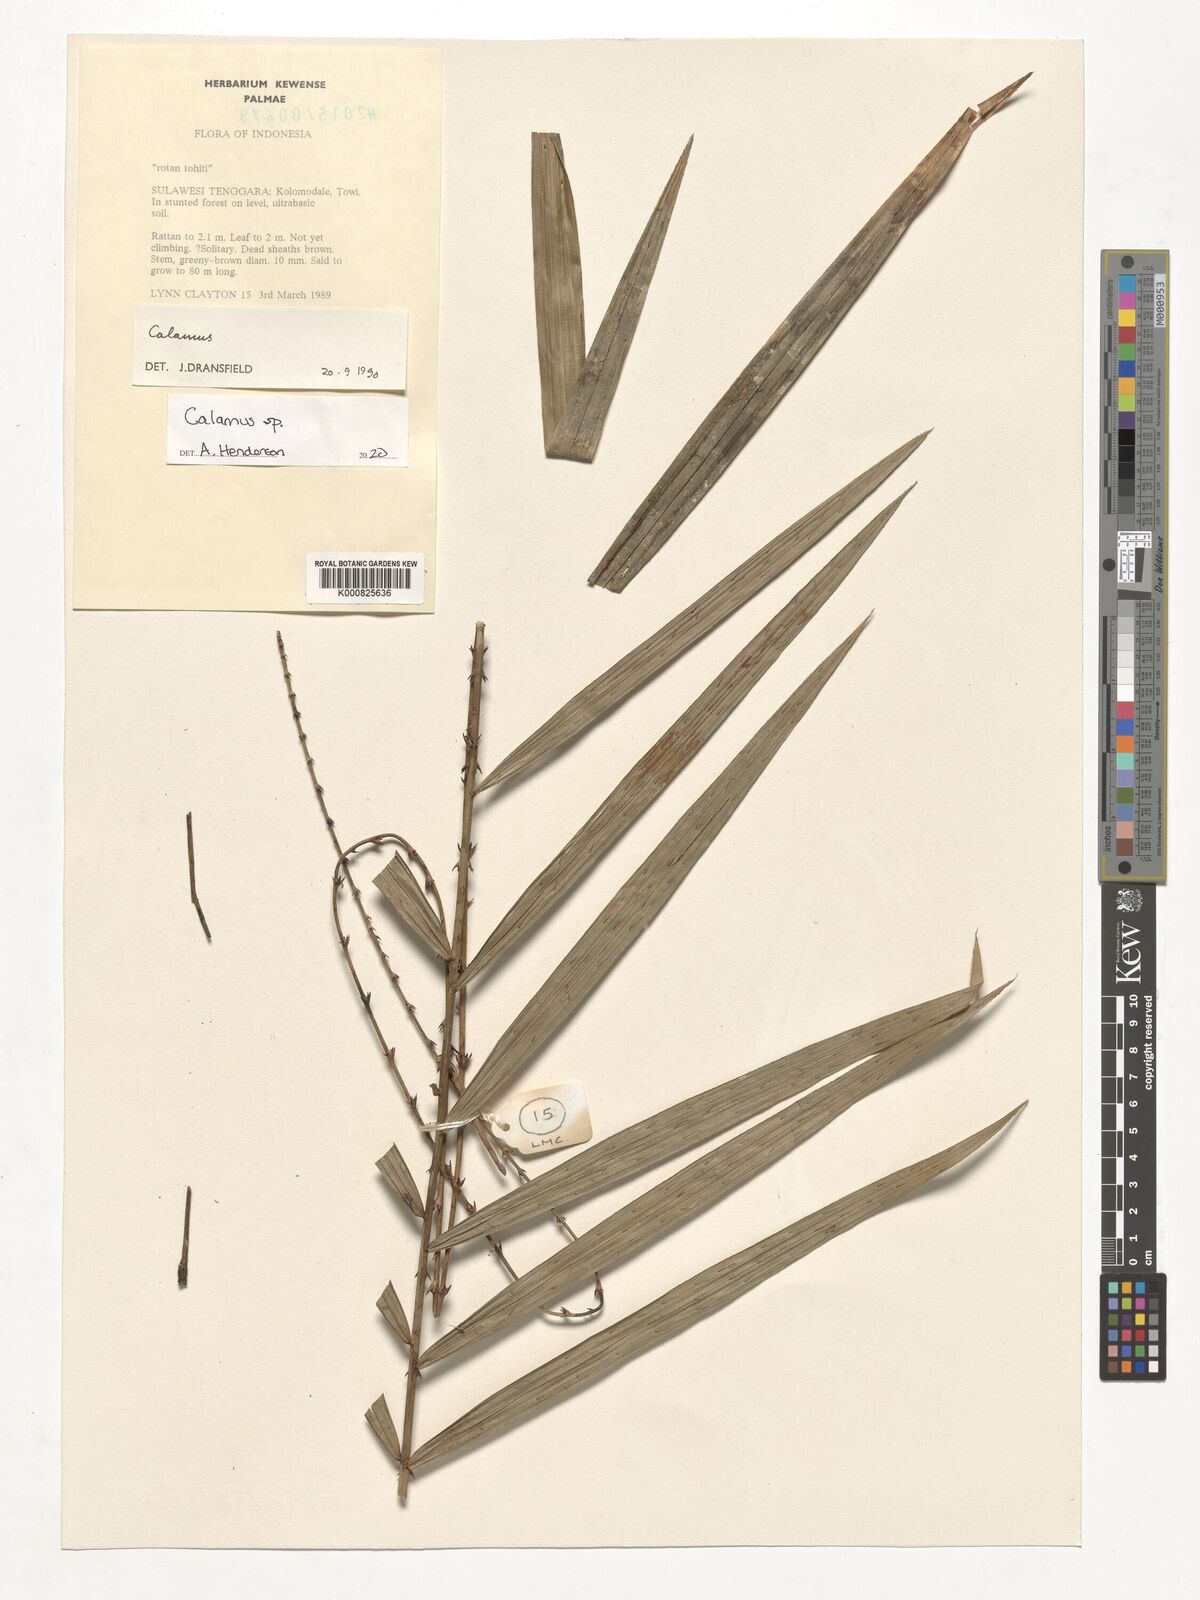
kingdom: Plantae
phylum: Tracheophyta
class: Liliopsida
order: Arecales
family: Arecaceae
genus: Calamus
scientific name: Calamus
